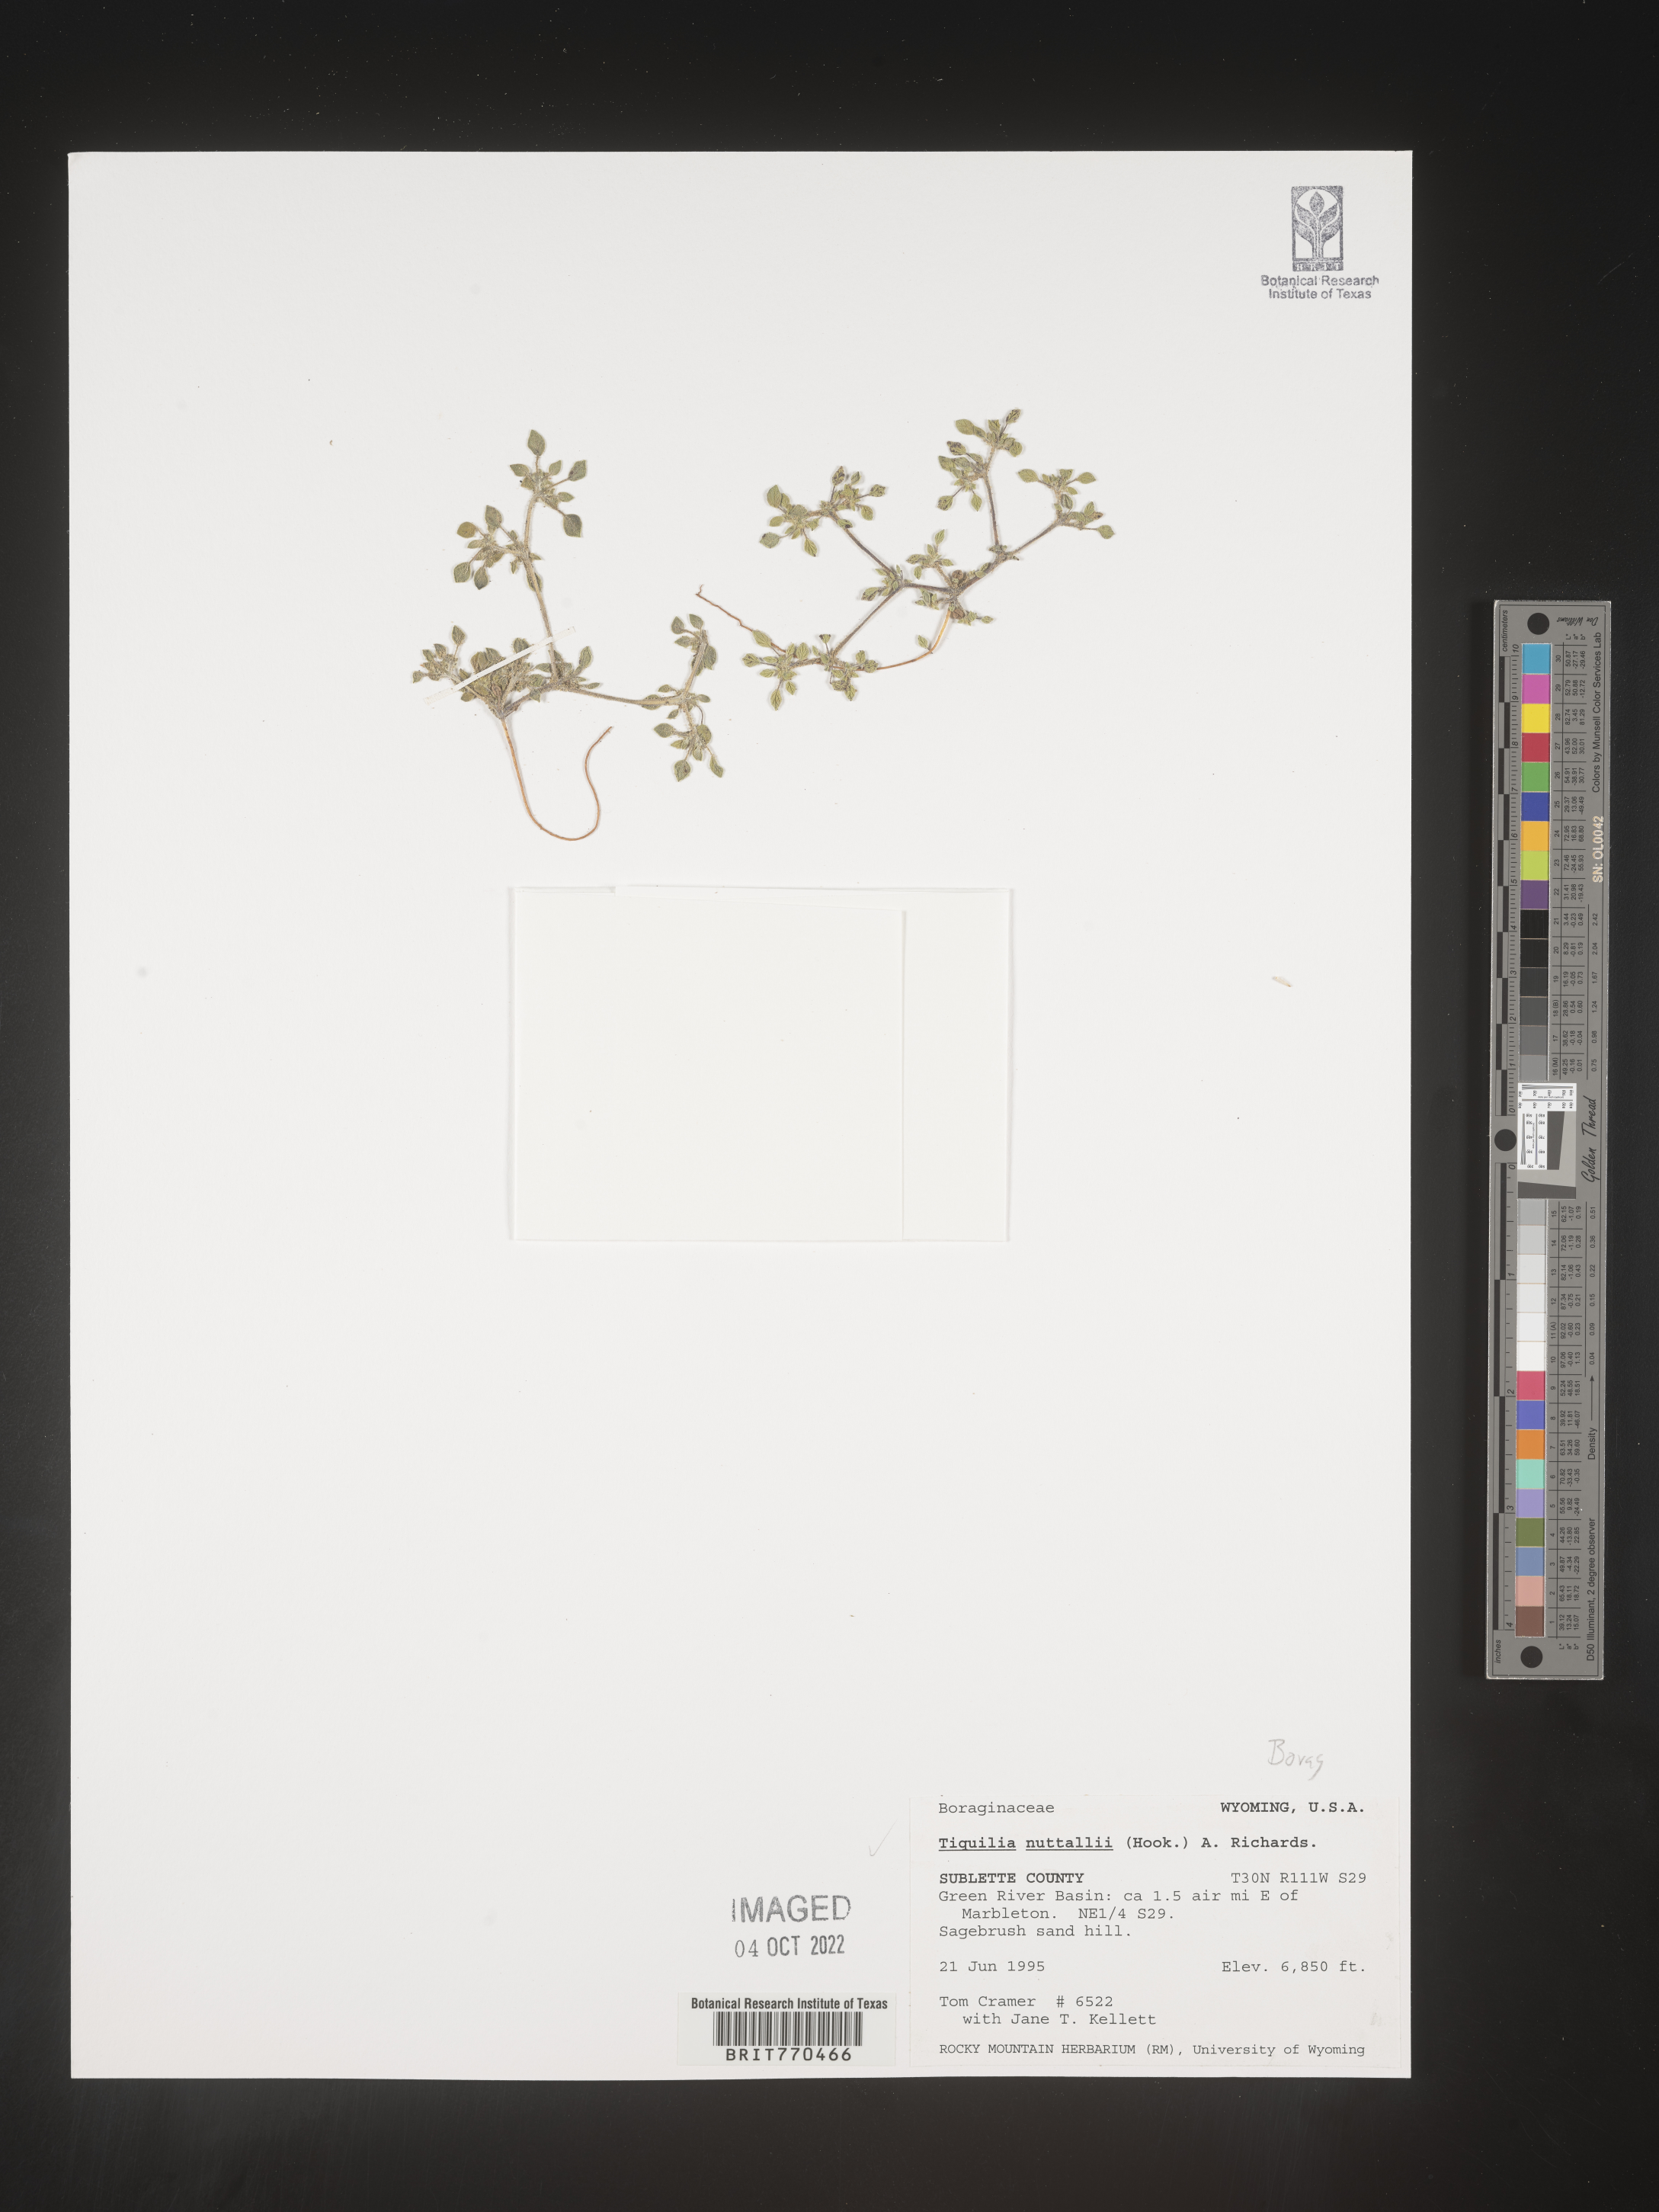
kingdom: Plantae
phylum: Tracheophyta
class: Magnoliopsida
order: Boraginales
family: Ehretiaceae
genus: Tiquilia
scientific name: Tiquilia
